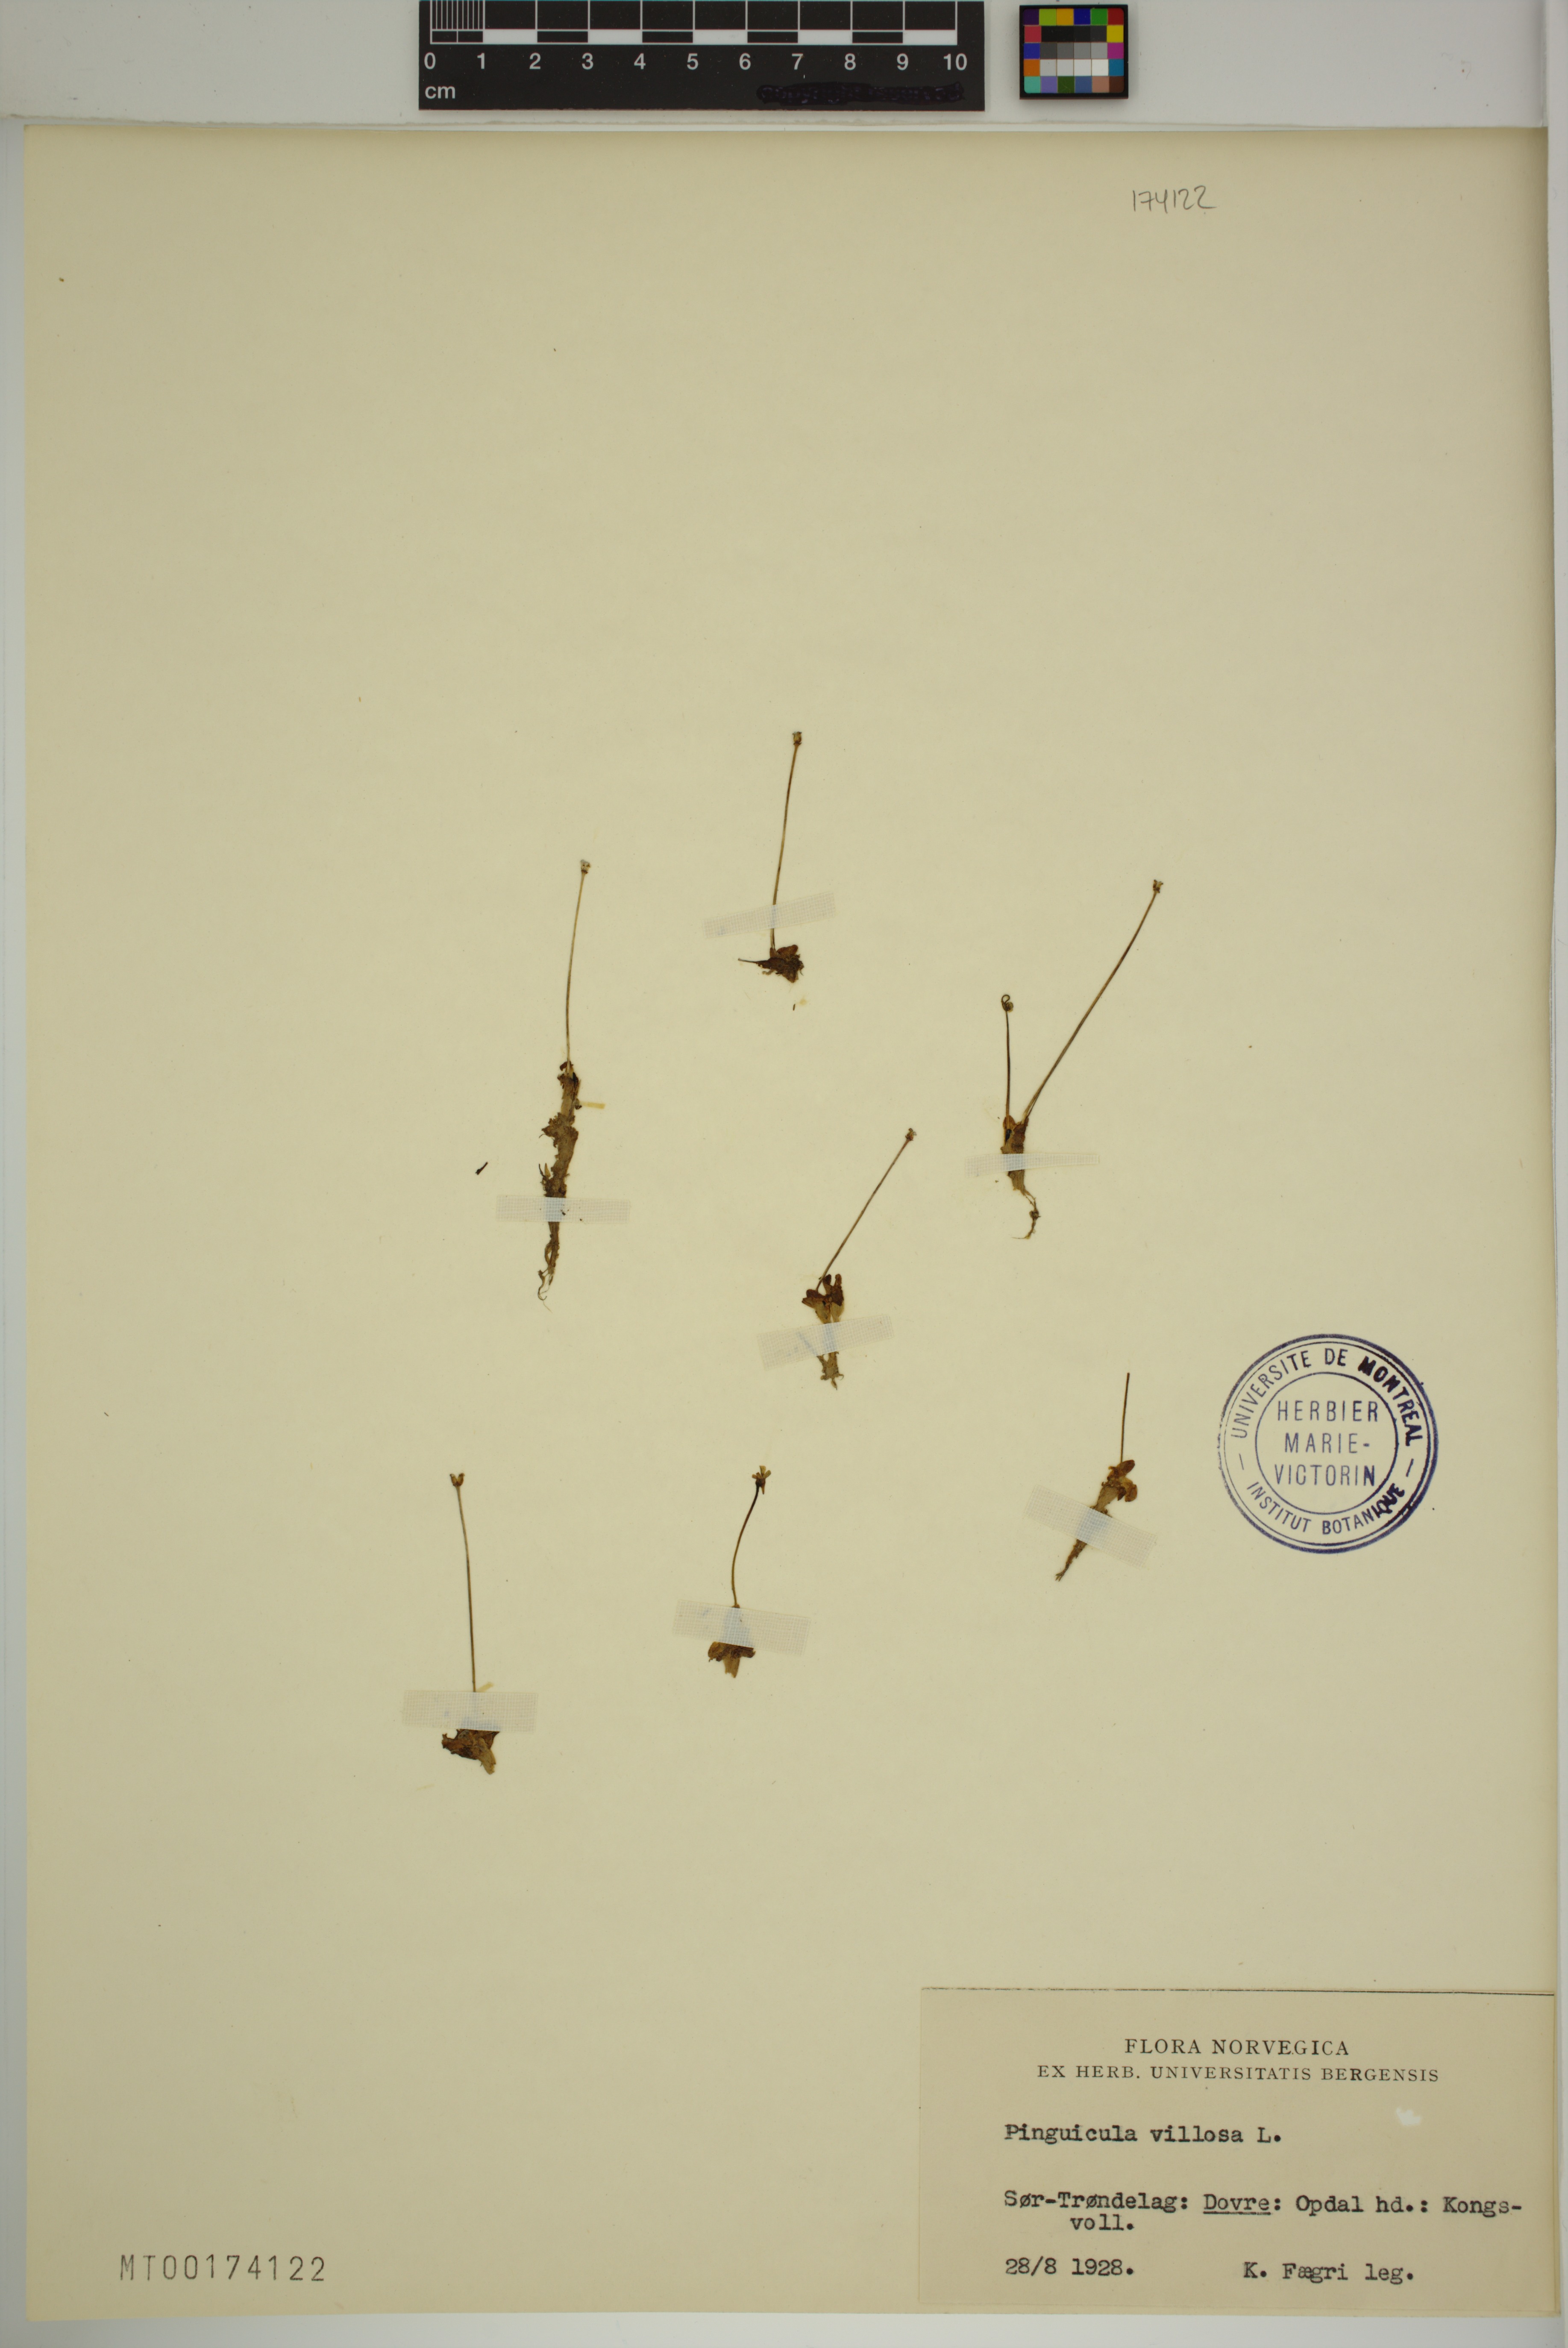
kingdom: Plantae
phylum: Tracheophyta
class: Magnoliopsida
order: Lamiales
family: Lentibulariaceae
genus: Pinguicula
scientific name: Pinguicula villosa
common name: Hairy butterwort
